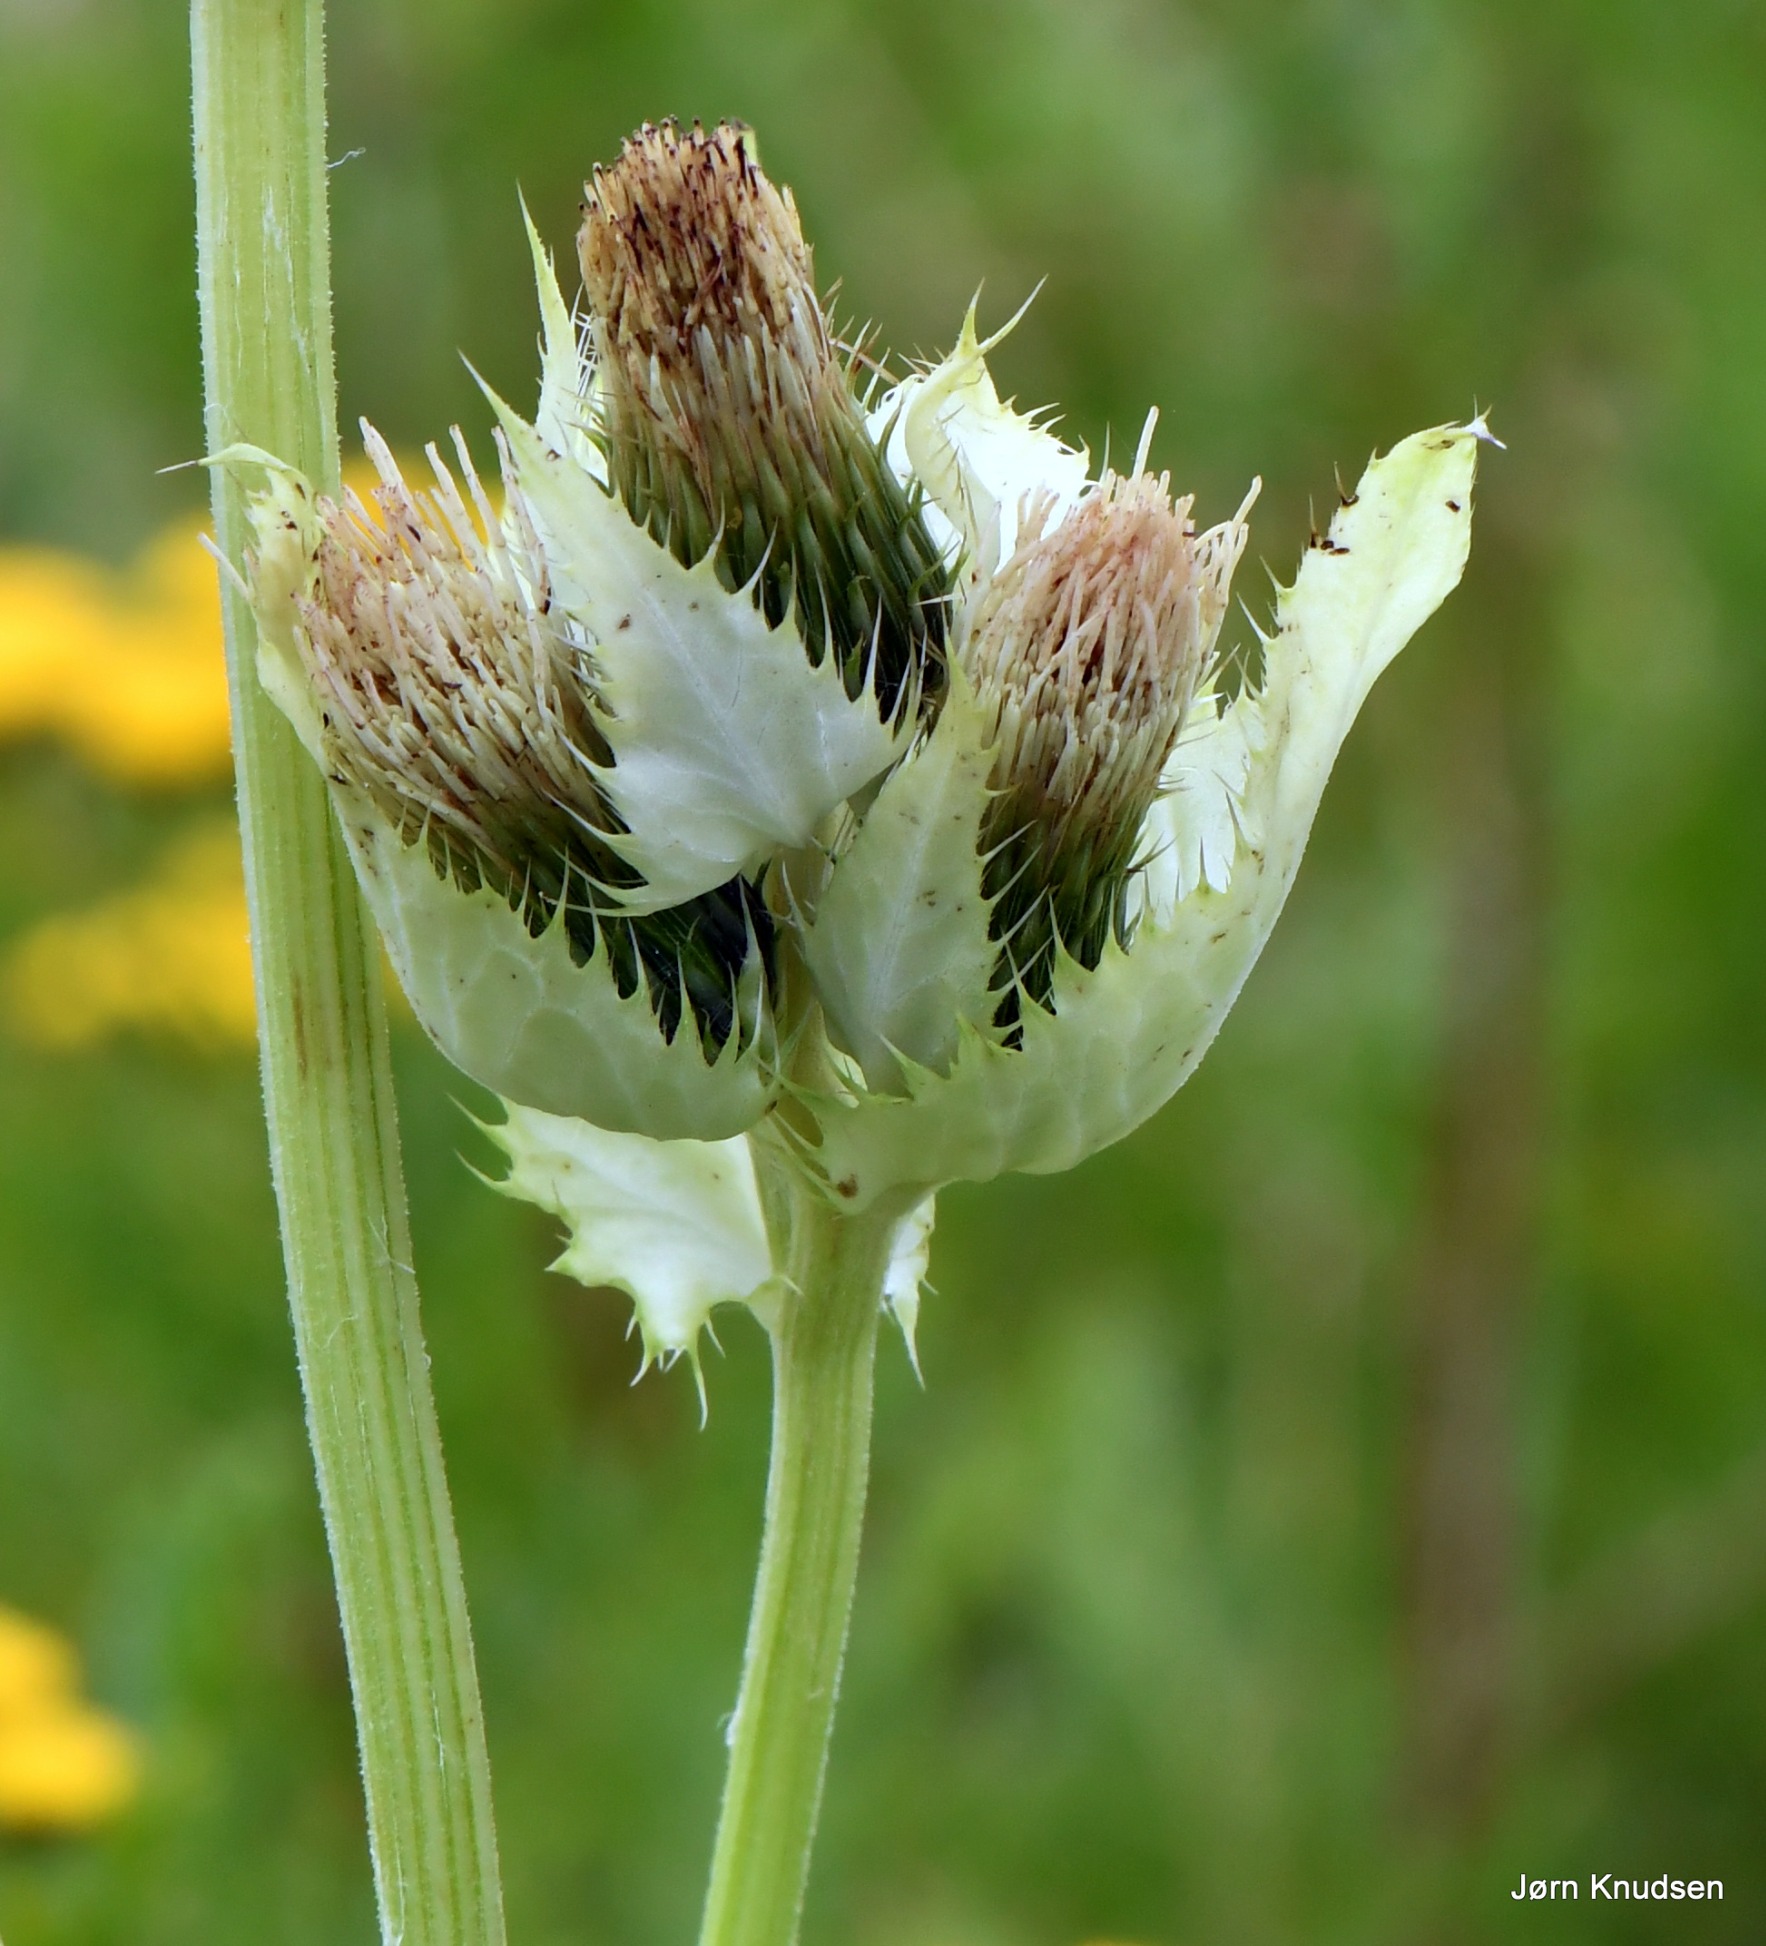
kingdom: Plantae
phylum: Tracheophyta
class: Magnoliopsida
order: Asterales
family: Asteraceae
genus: Cirsium
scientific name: Cirsium oleraceum
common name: Kål-tidsel
